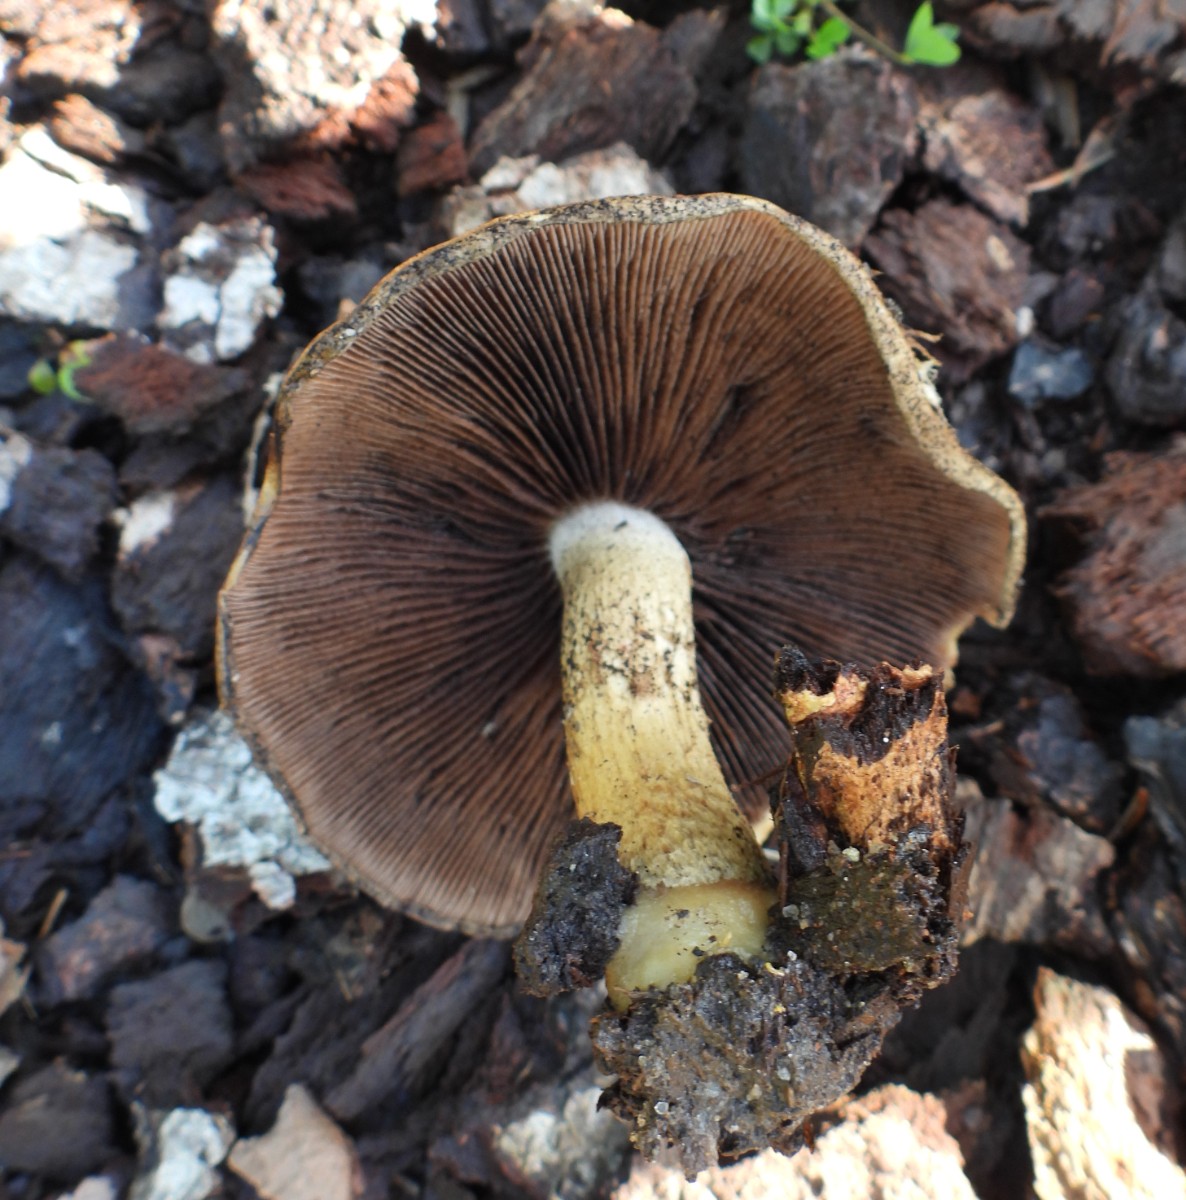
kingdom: Fungi
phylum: Basidiomycota
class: Agaricomycetes
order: Agaricales
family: Psathyrellaceae
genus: Lacrymaria
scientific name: Lacrymaria lacrymabunda
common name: grædende mørkhat
